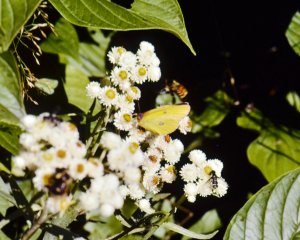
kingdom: Animalia
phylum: Arthropoda
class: Insecta
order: Lepidoptera
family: Pieridae
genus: Colias
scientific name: Colias interior
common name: Pink-edged Sulphur
